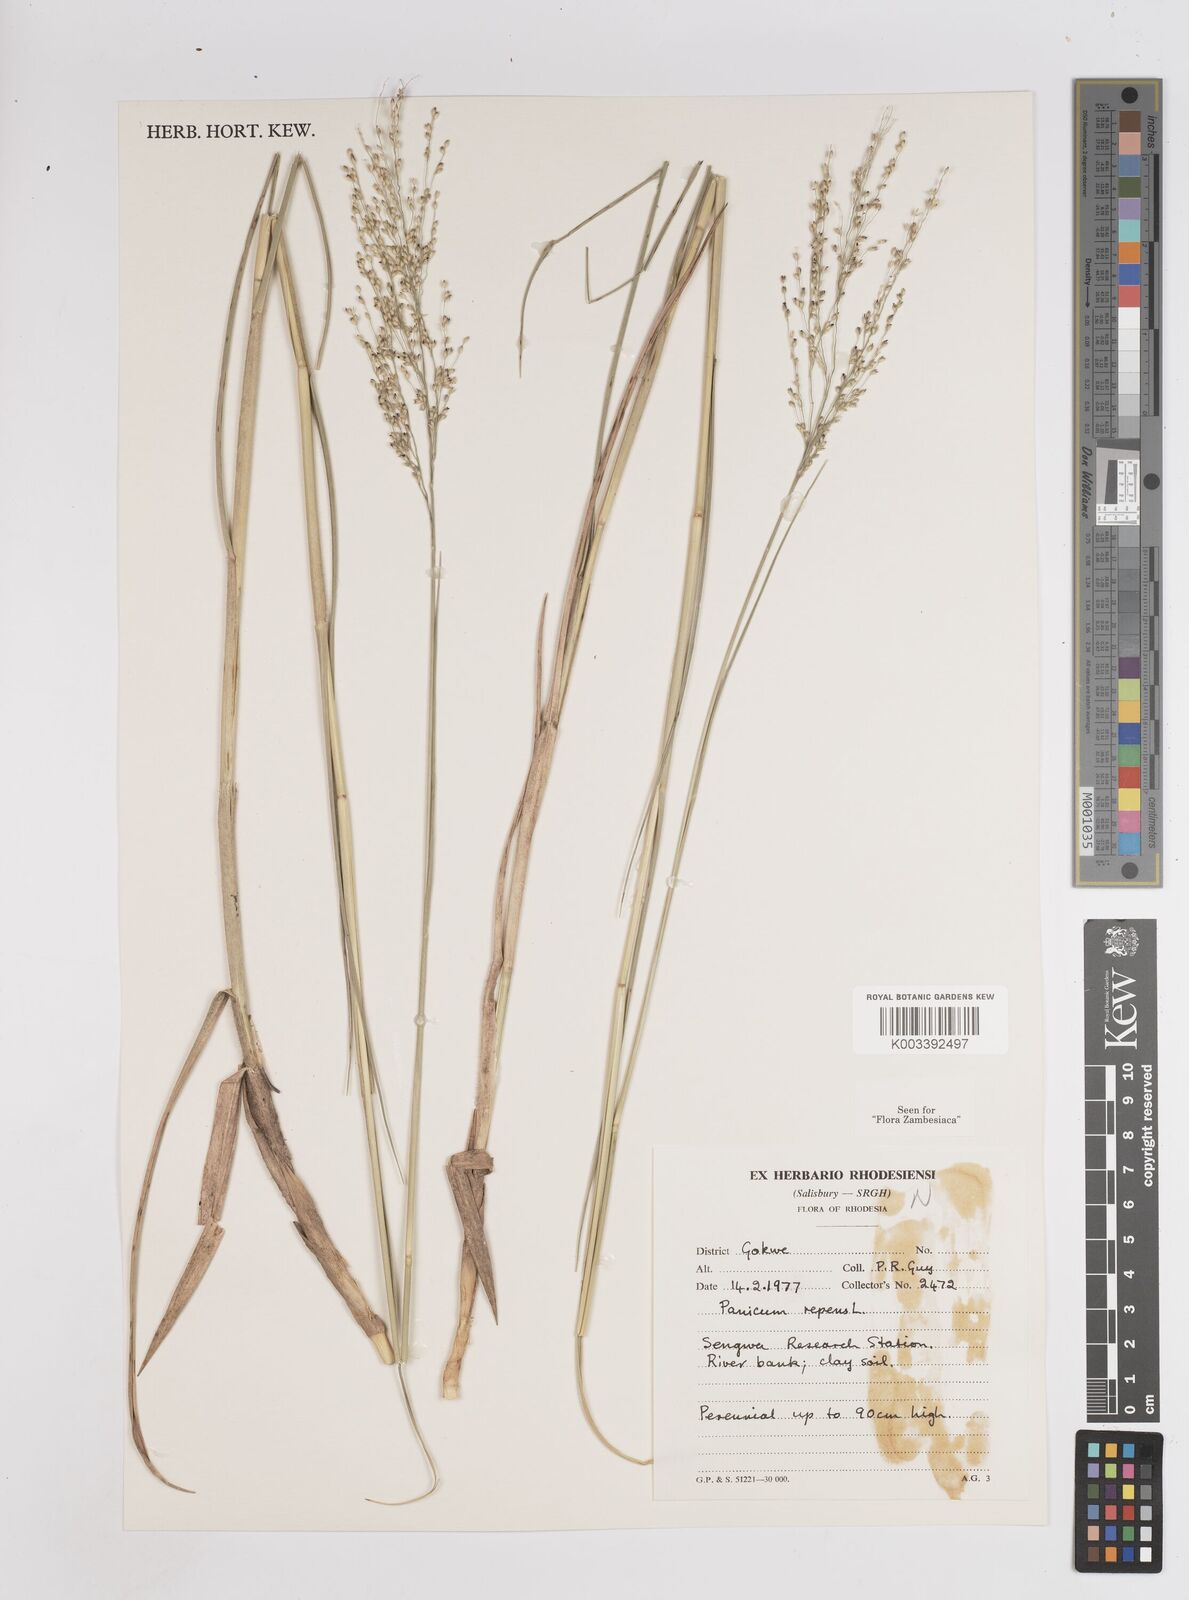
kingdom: Plantae
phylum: Tracheophyta
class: Liliopsida
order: Poales
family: Poaceae
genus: Panicum
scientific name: Panicum repens
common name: Torpedo grass
